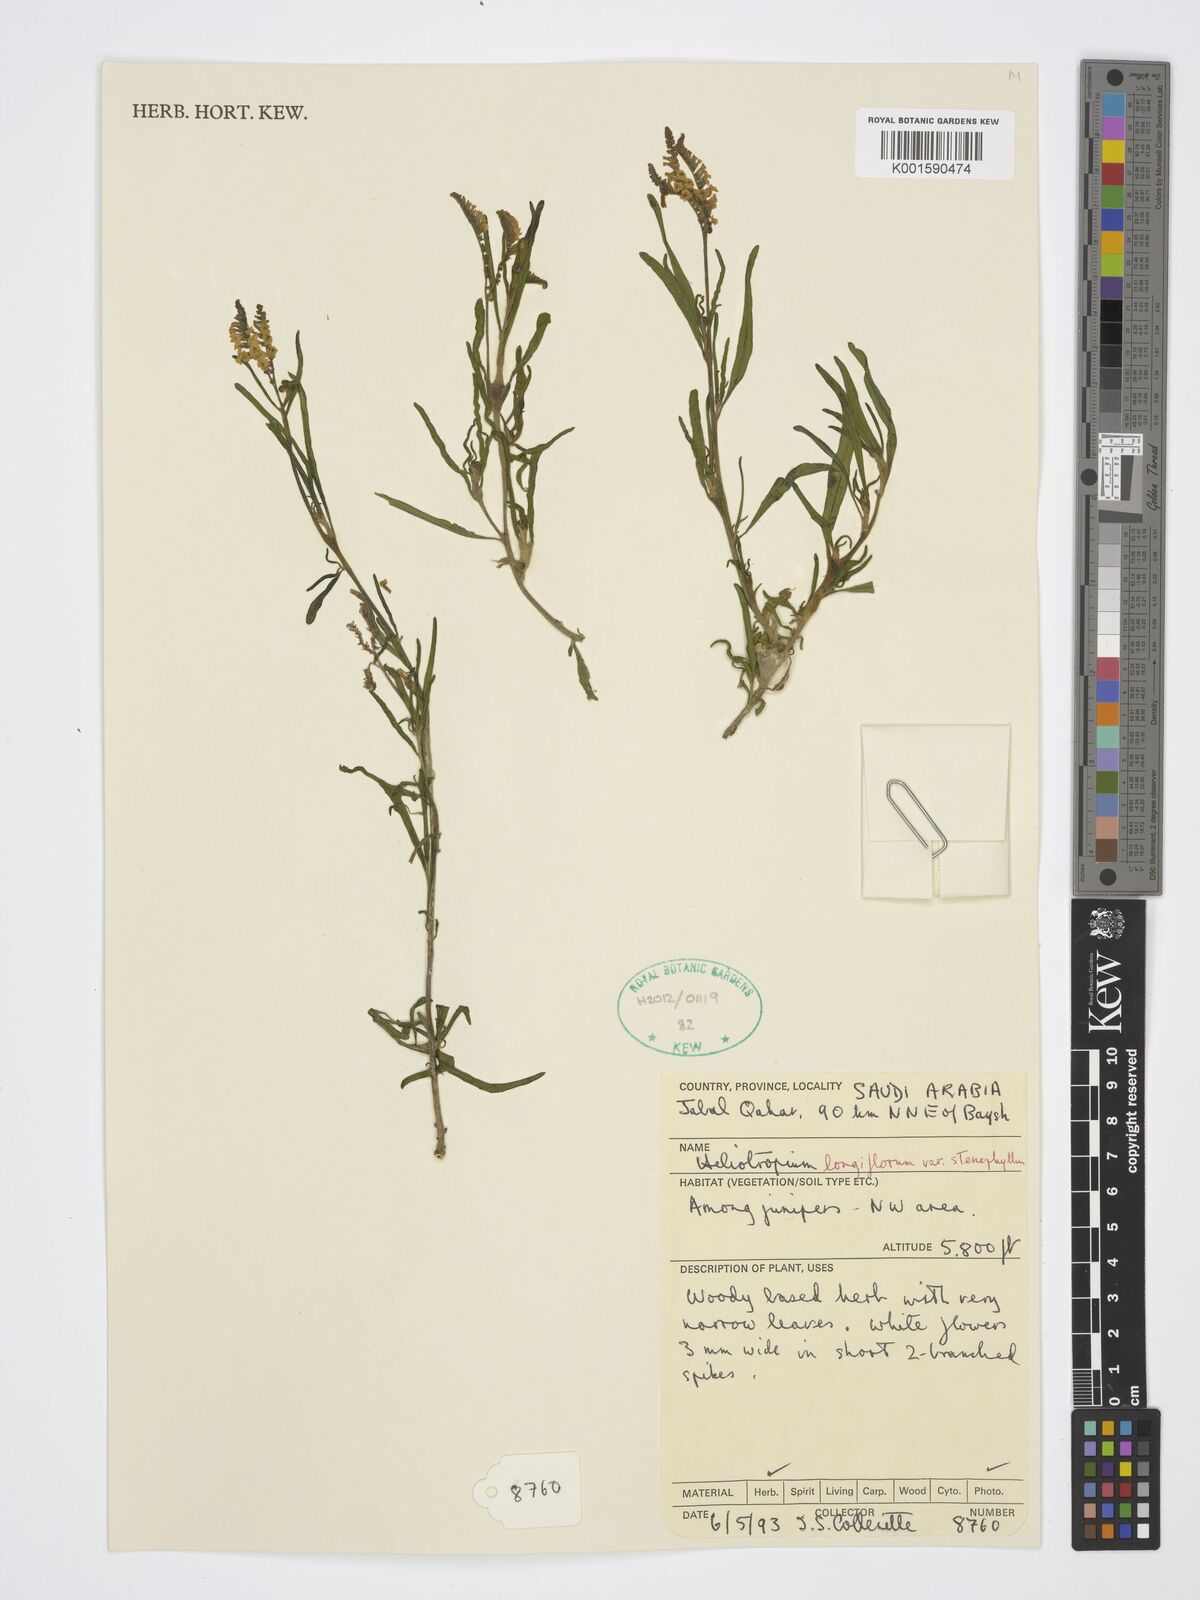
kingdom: Plantae
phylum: Tracheophyta
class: Magnoliopsida
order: Boraginales
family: Heliotropiaceae
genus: Heliotropium
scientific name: Heliotropium longiflorum
